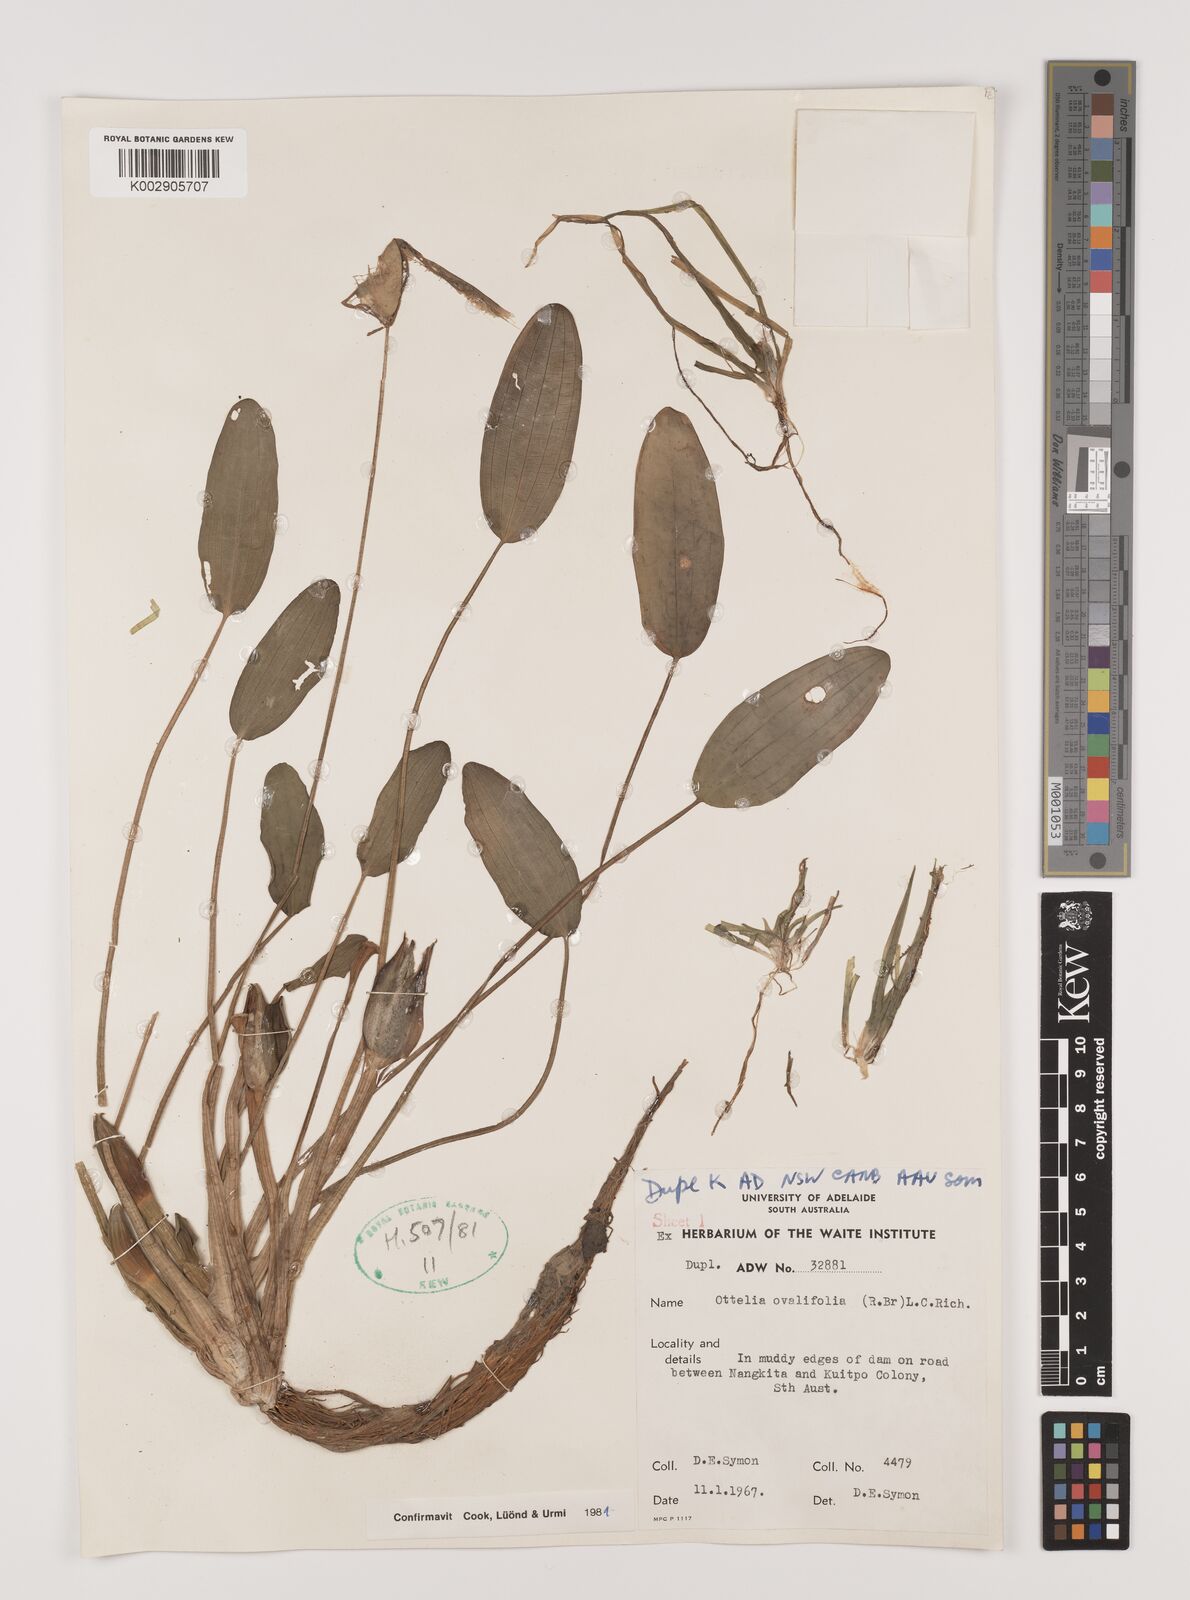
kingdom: Plantae
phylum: Tracheophyta
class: Liliopsida
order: Alismatales
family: Hydrocharitaceae
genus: Ottelia
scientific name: Ottelia ovalifolia
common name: Swamp-lily
